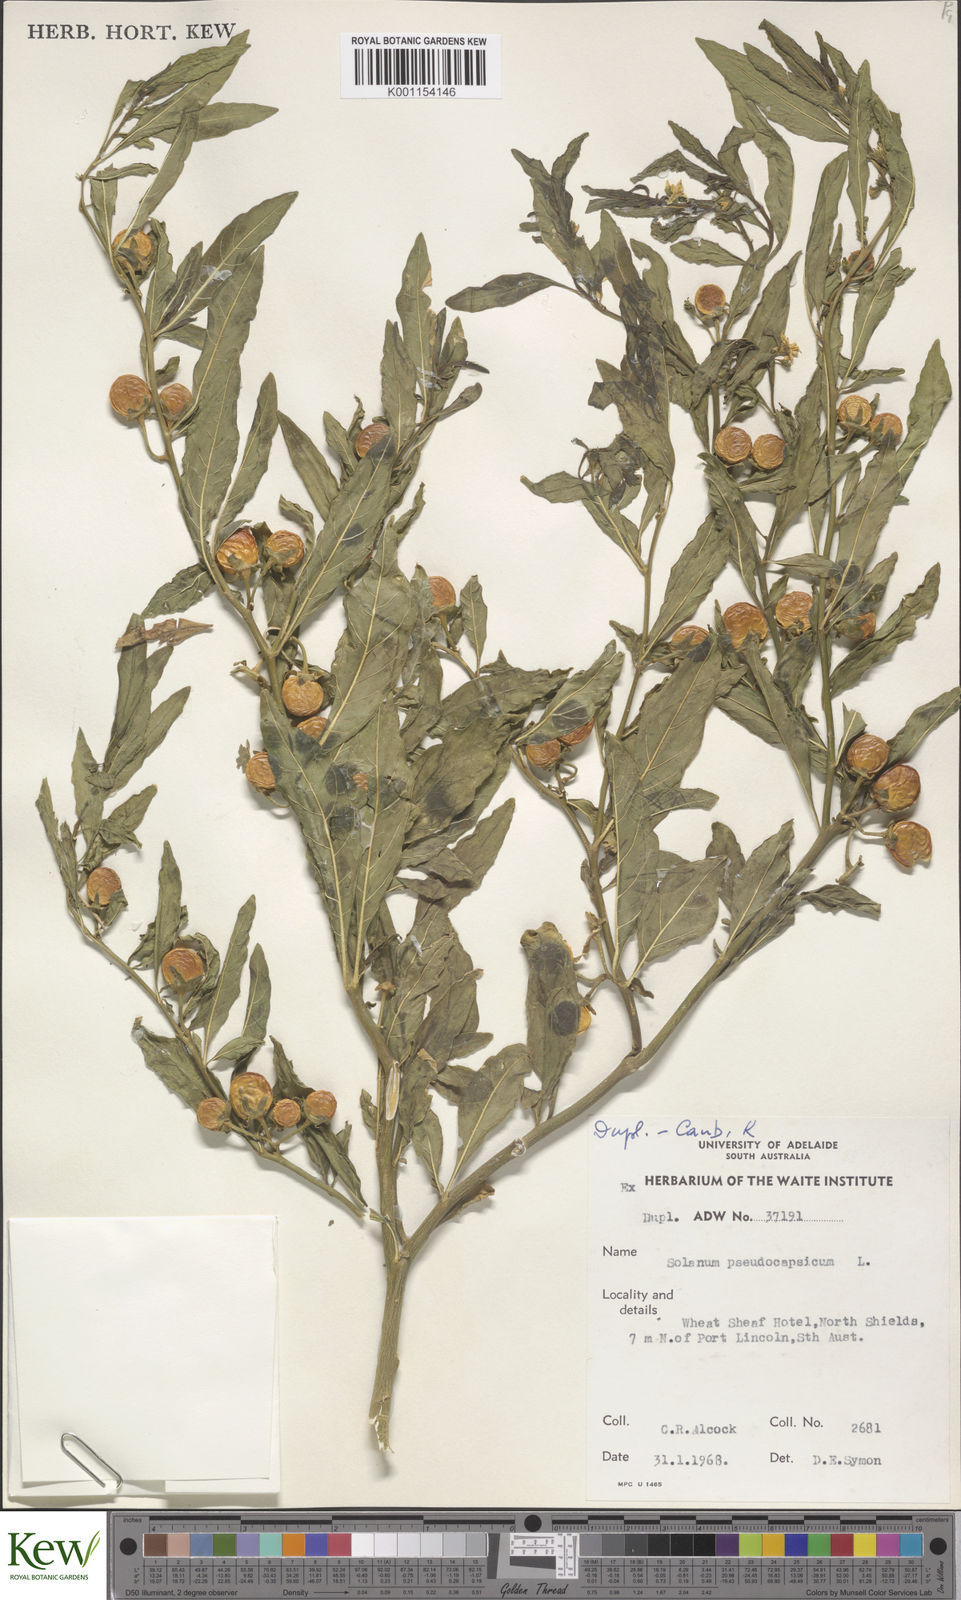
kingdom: Plantae
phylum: Tracheophyta
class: Magnoliopsida
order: Solanales
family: Solanaceae
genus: Solanum
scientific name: Solanum pseudocapsicum
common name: Jerusalem cherry
